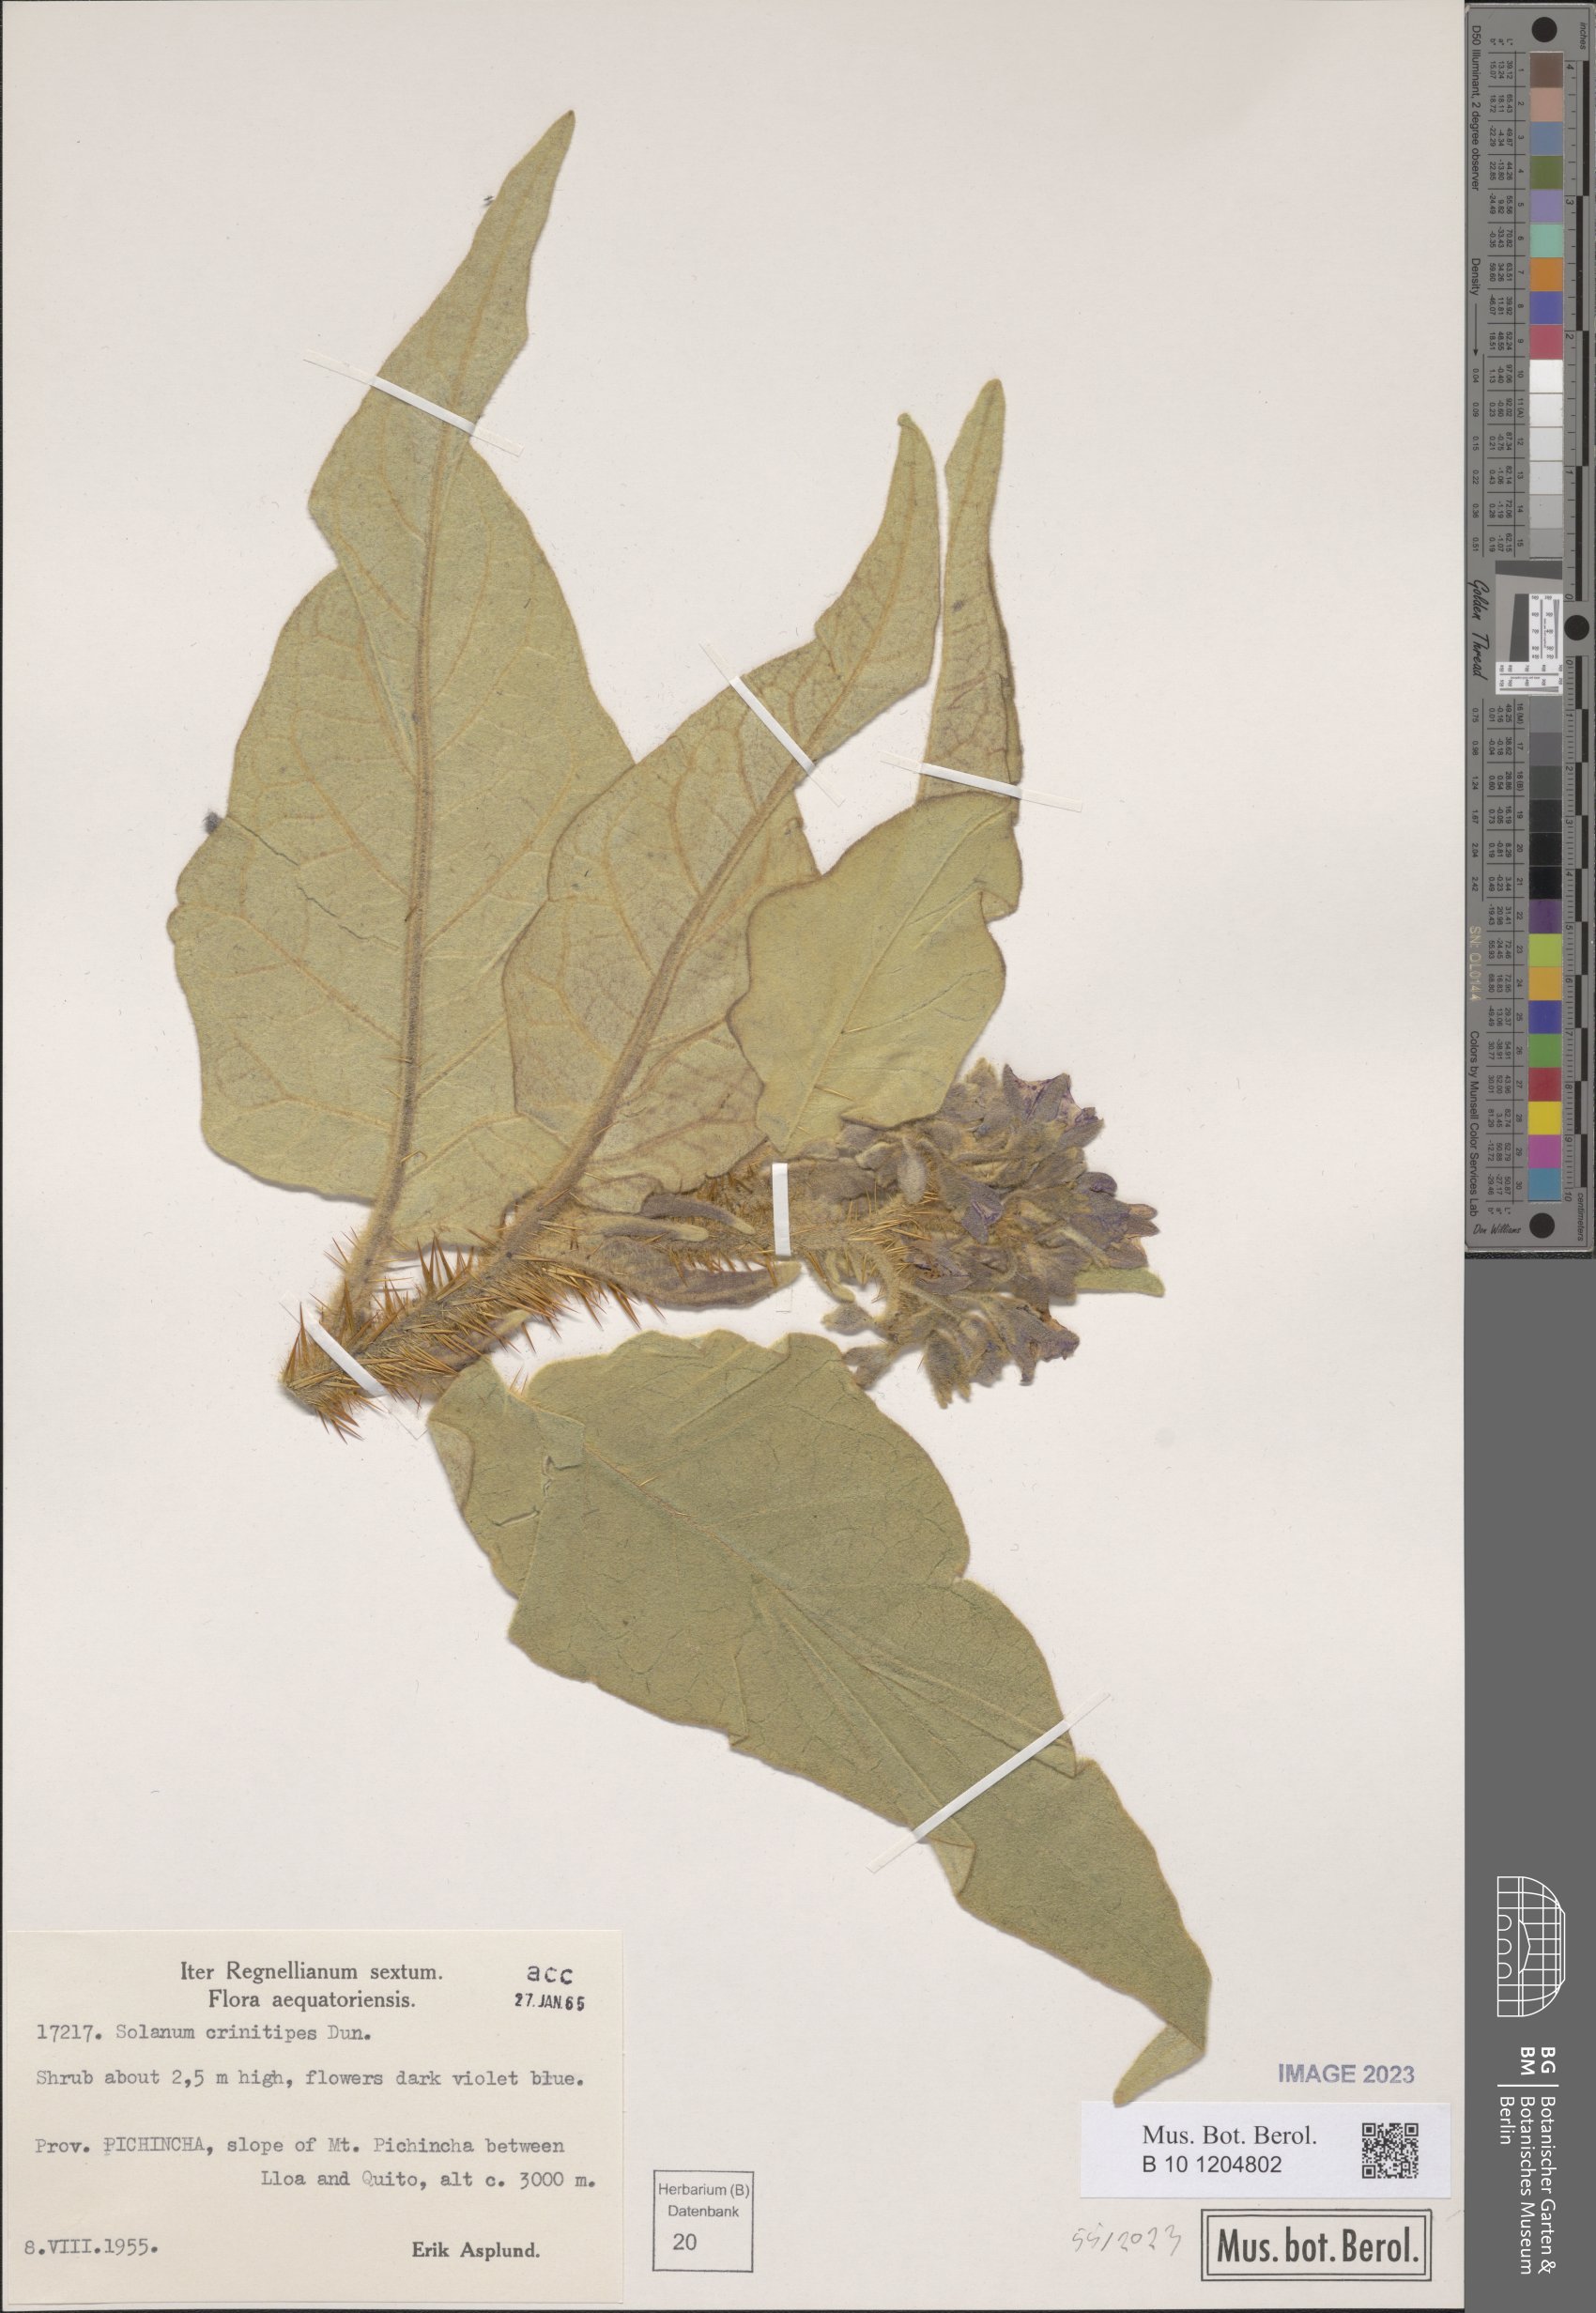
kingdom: Plantae
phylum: Tracheophyta
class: Magnoliopsida
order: Solanales
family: Solanaceae
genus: Solanum
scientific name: Solanum crinitipes
